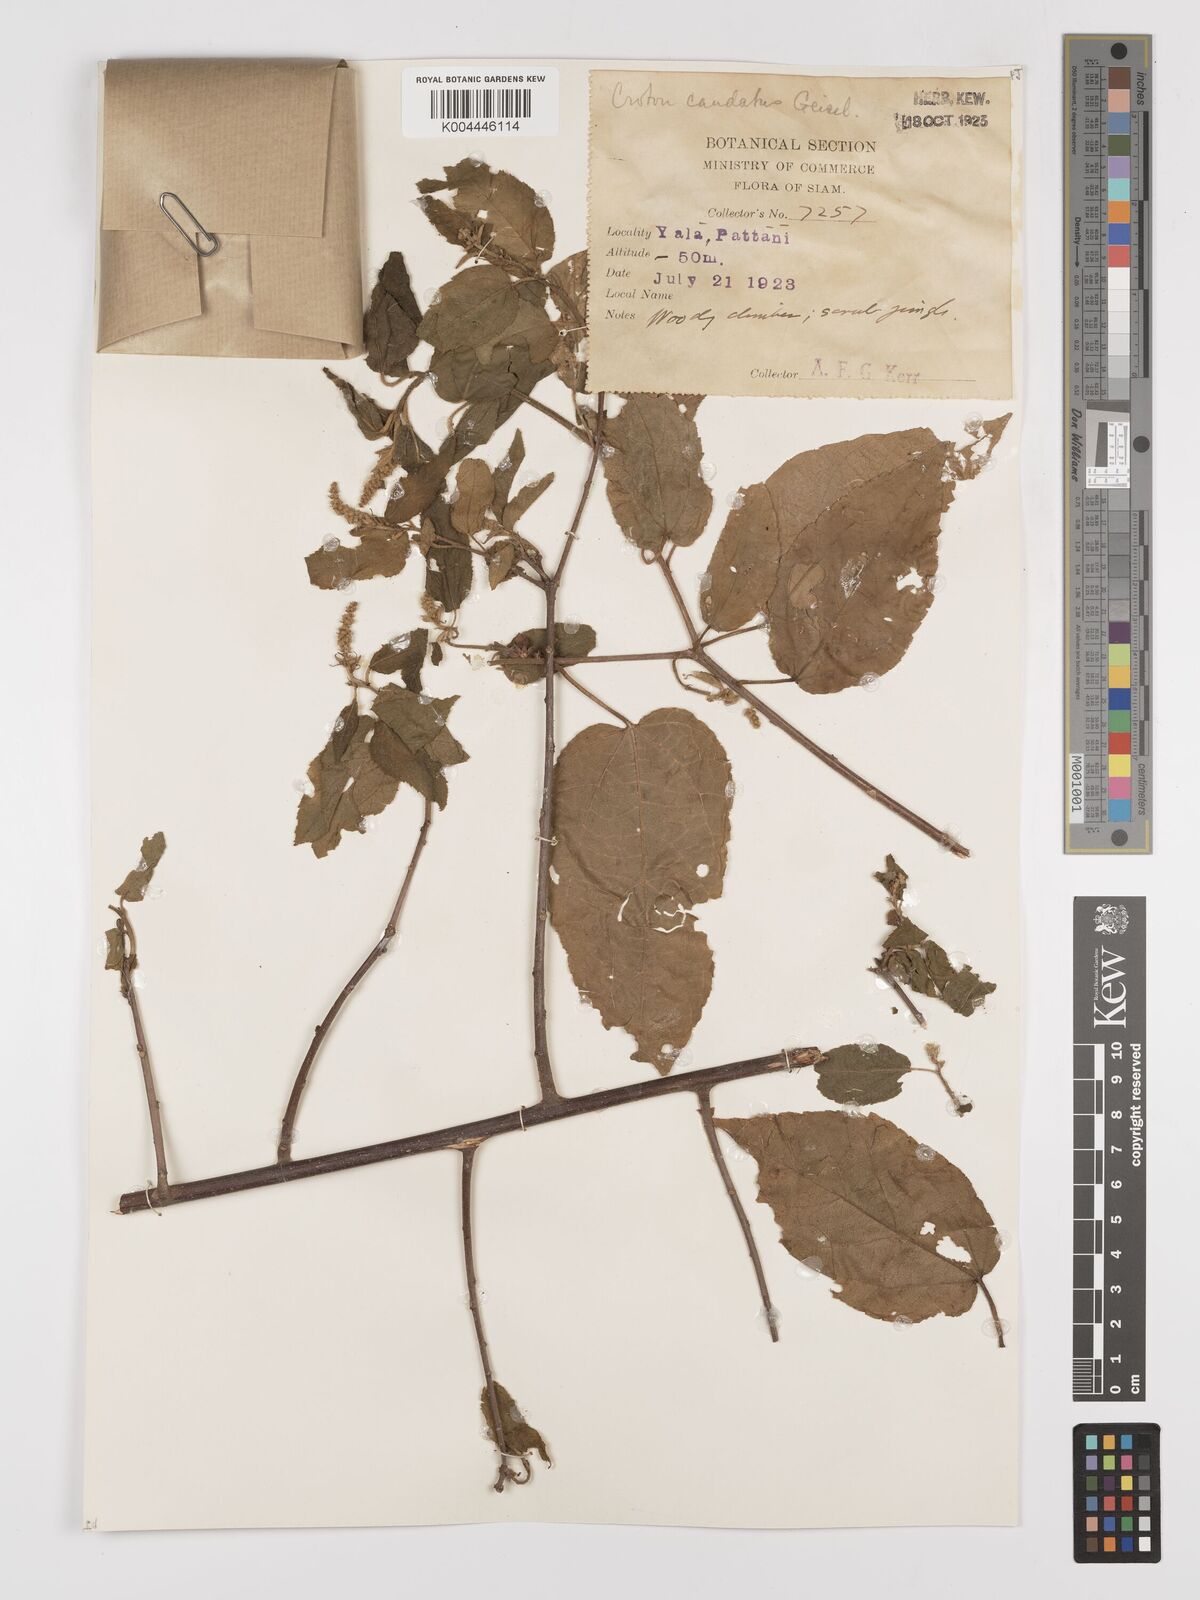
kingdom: Plantae
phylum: Tracheophyta
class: Magnoliopsida
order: Malpighiales
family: Euphorbiaceae
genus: Croton
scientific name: Croton caudatus
